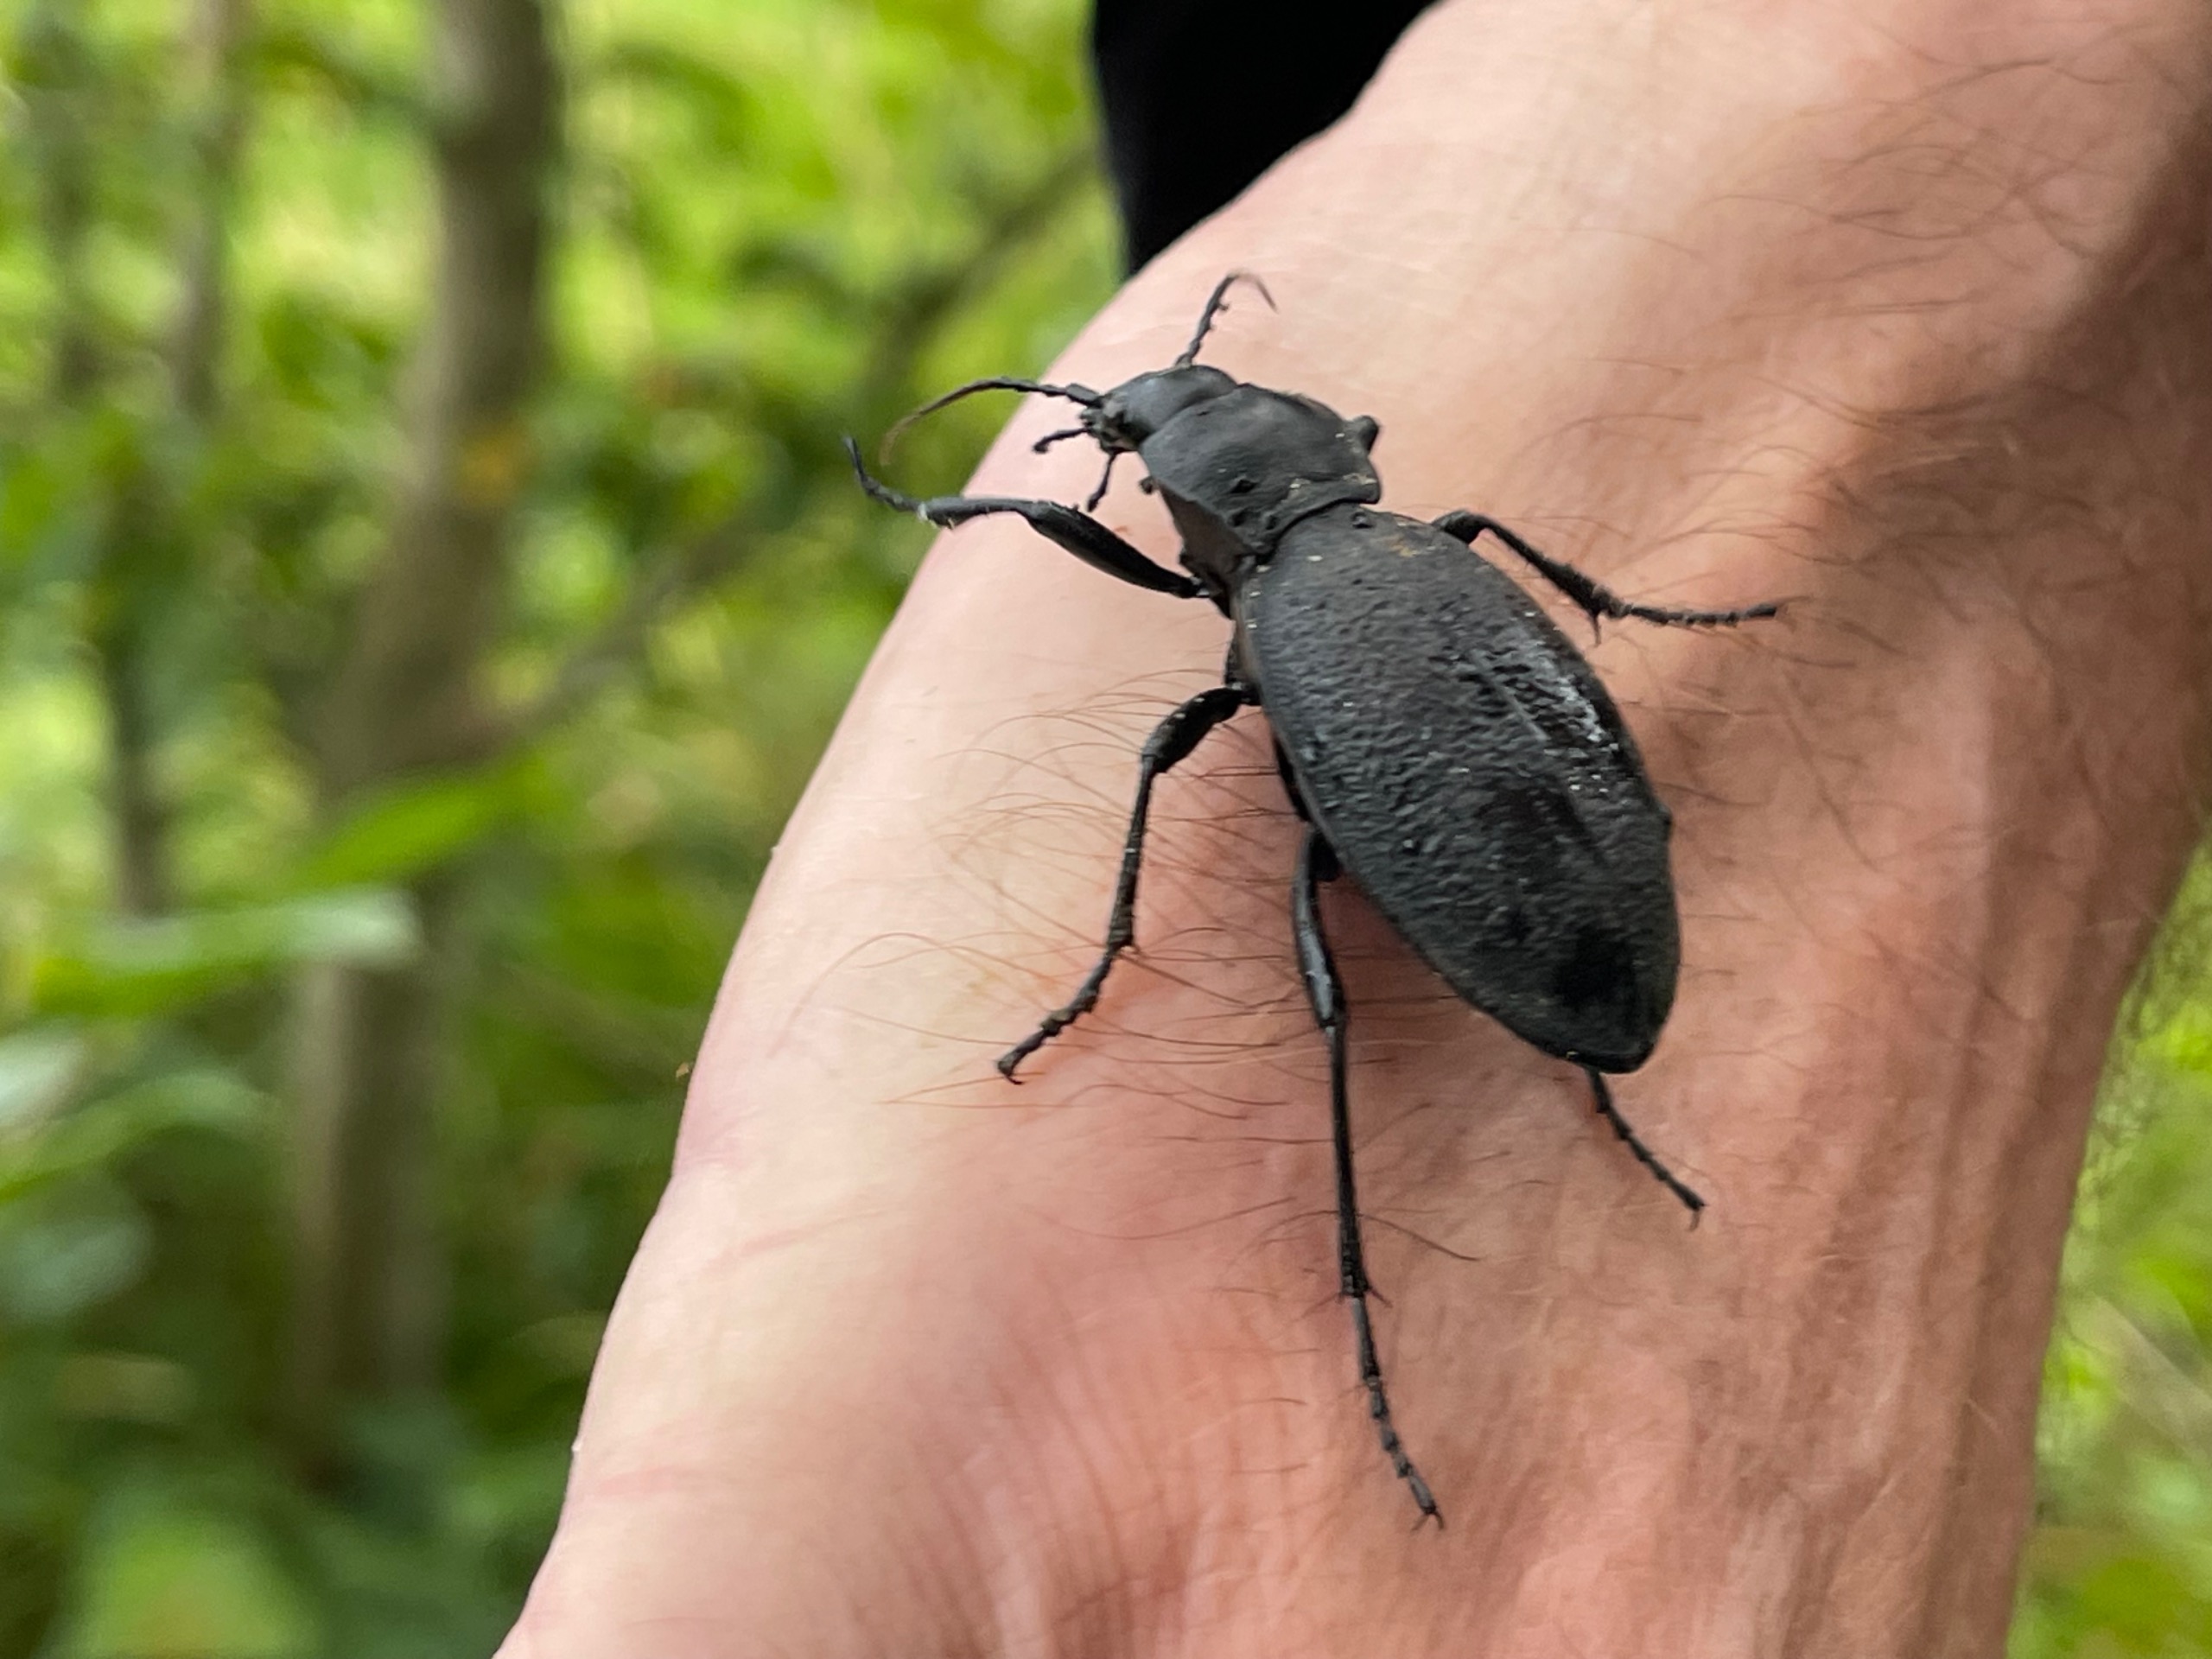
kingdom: Animalia
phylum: Arthropoda
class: Insecta
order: Coleoptera
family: Carabidae
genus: Carabus
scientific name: Carabus coriaceus
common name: Læderløber
